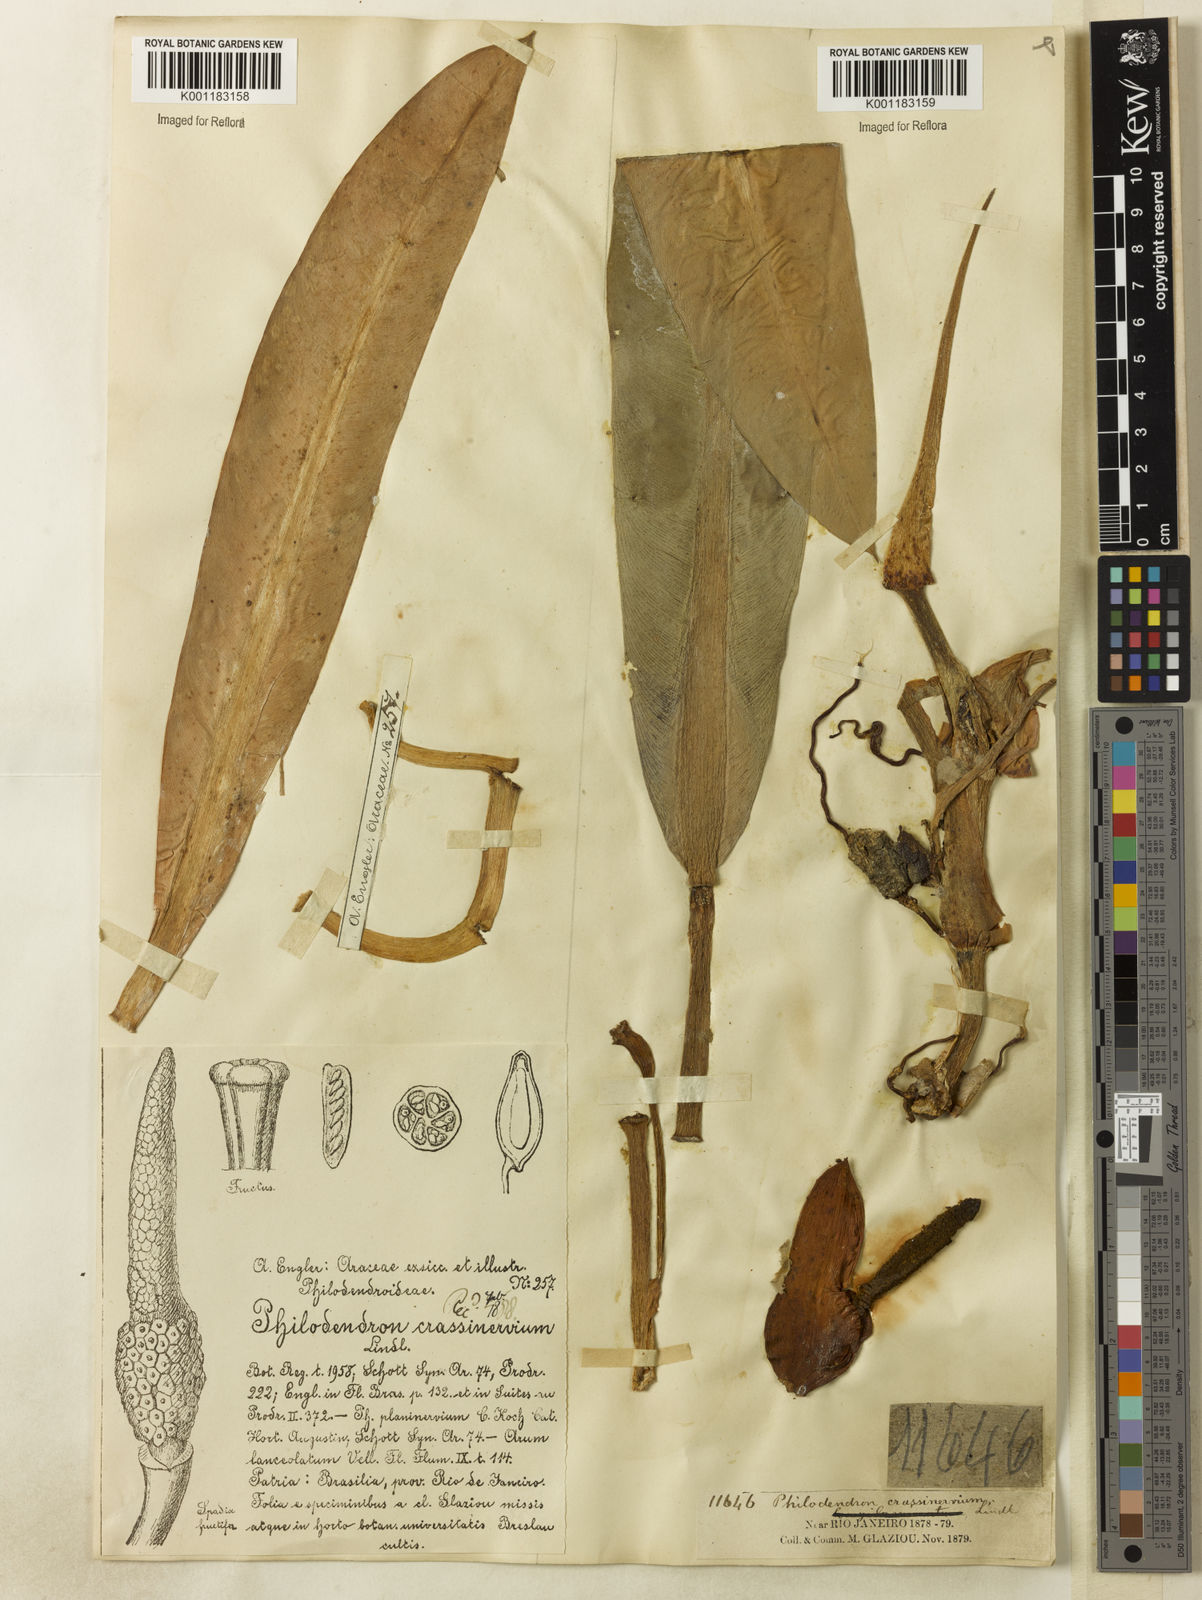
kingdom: Plantae
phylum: Tracheophyta
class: Liliopsida
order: Alismatales
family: Araceae
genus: Philodendron
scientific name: Philodendron crassinervium
